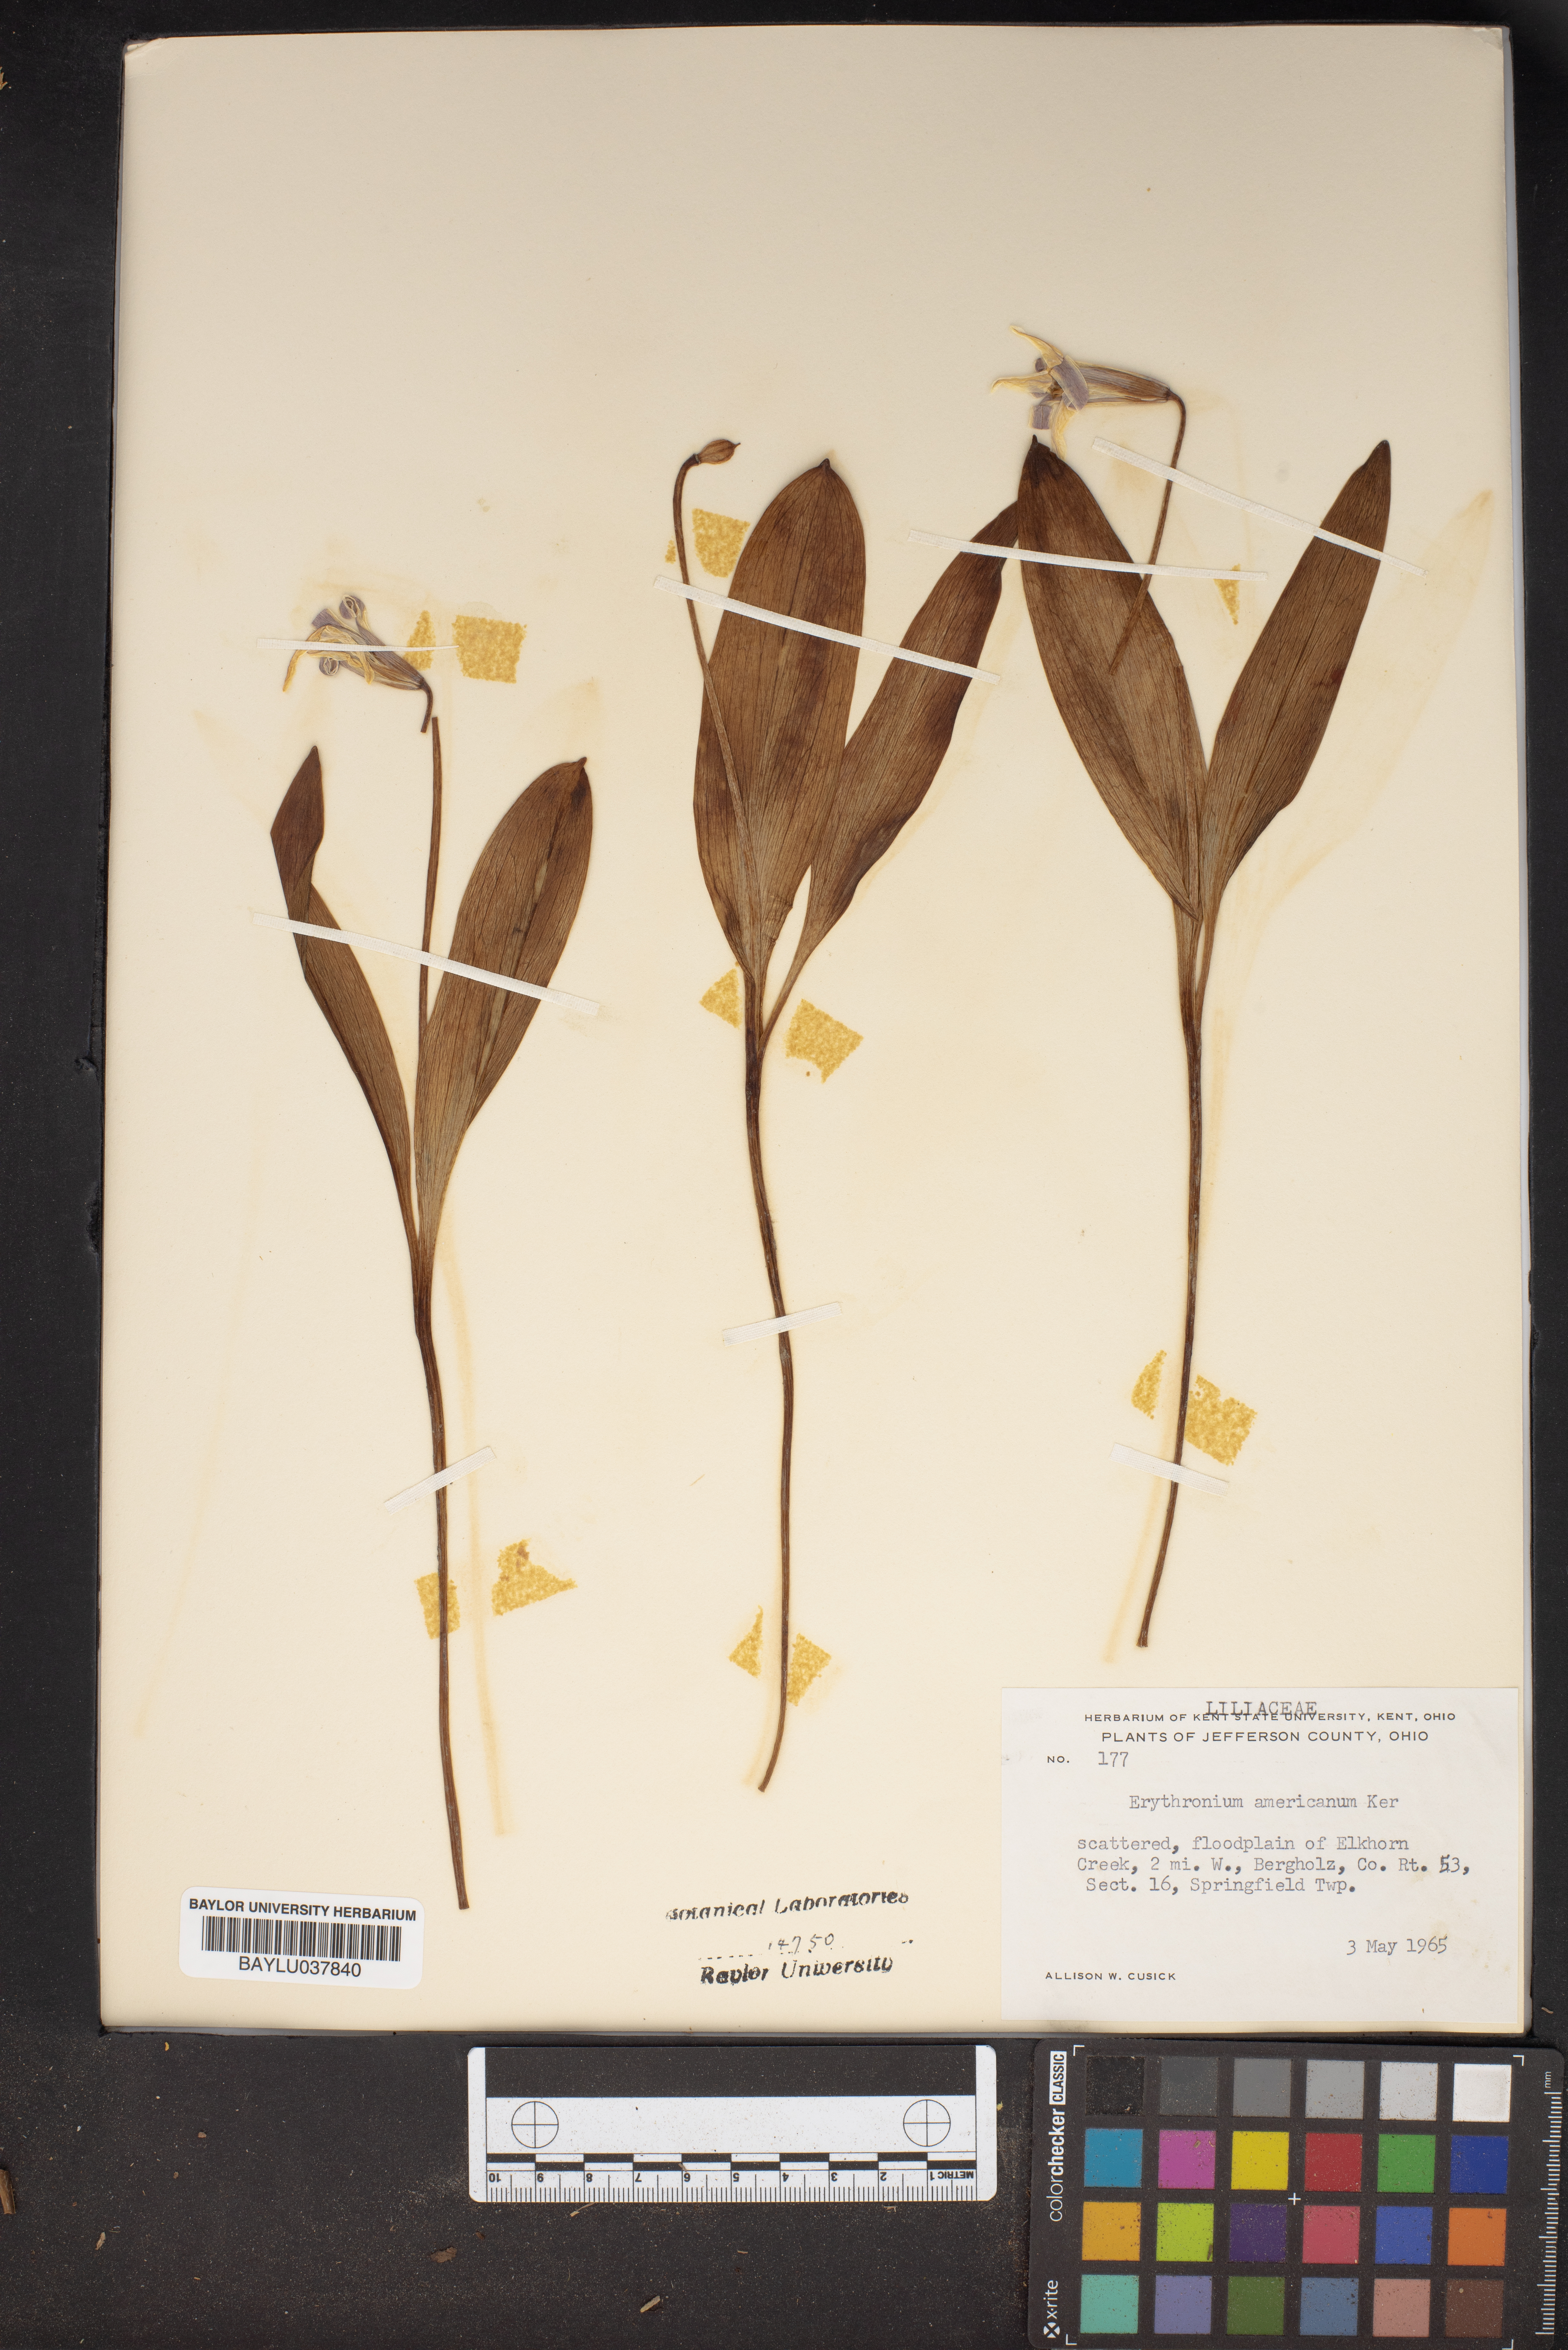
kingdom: Plantae
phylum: Tracheophyta
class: Liliopsida
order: Liliales
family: Liliaceae
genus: Erythronium
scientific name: Erythronium americanum
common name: Yellow adder's-tongue
